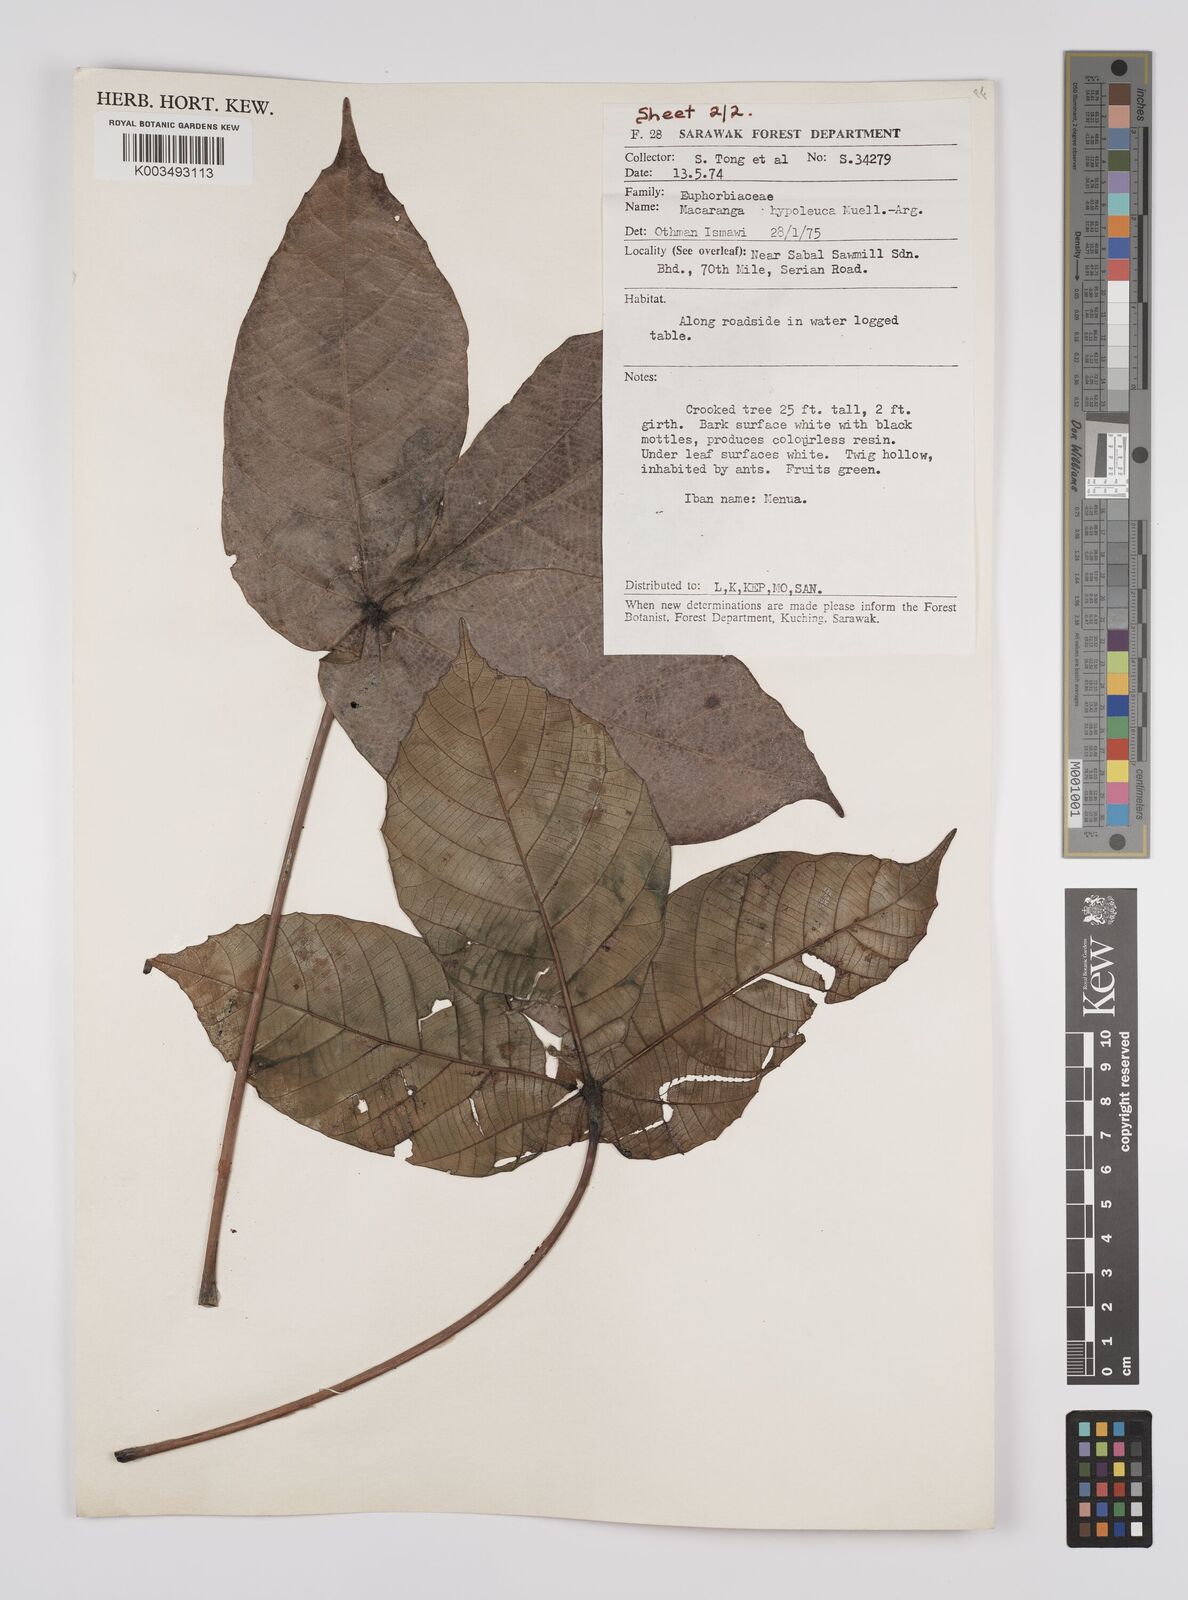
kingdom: Plantae
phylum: Tracheophyta
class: Magnoliopsida
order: Malpighiales
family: Euphorbiaceae
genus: Macaranga
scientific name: Macaranga hypoleuca
